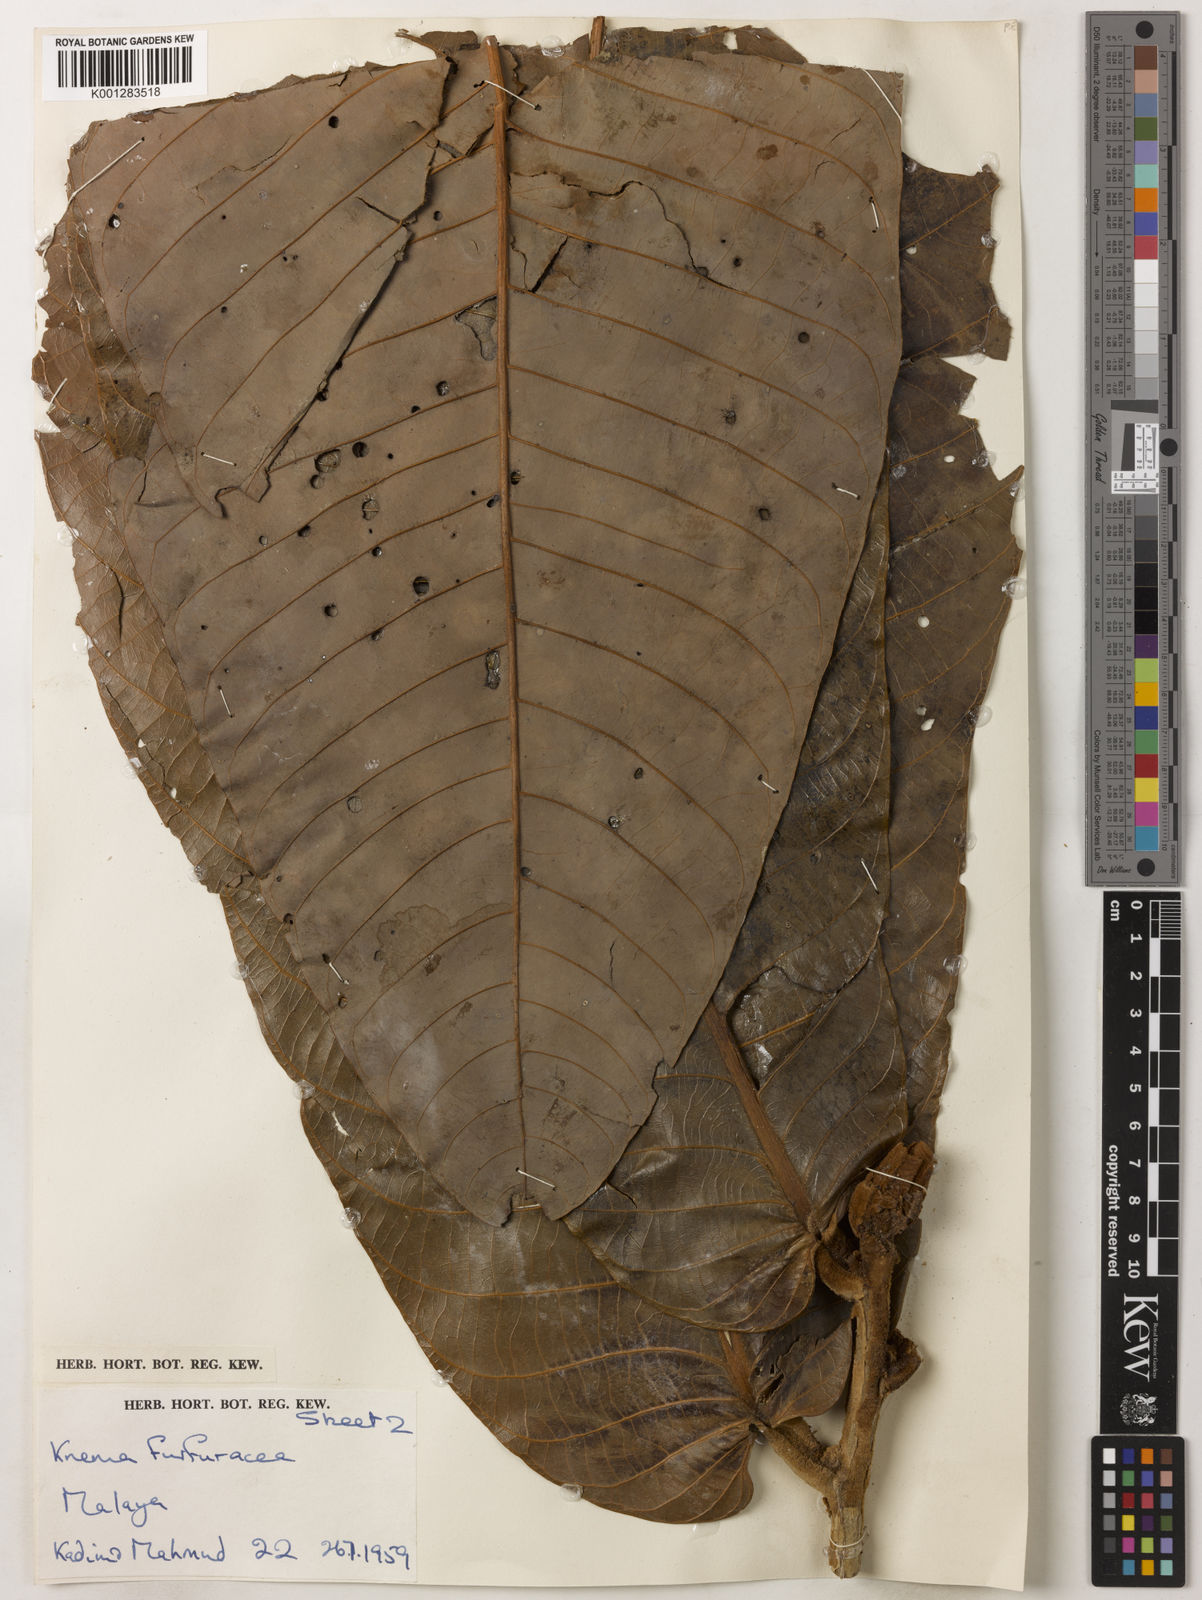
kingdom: Plantae
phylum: Tracheophyta
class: Magnoliopsida
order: Magnoliales
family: Myristicaceae
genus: Knema
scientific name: Knema furfuracea
